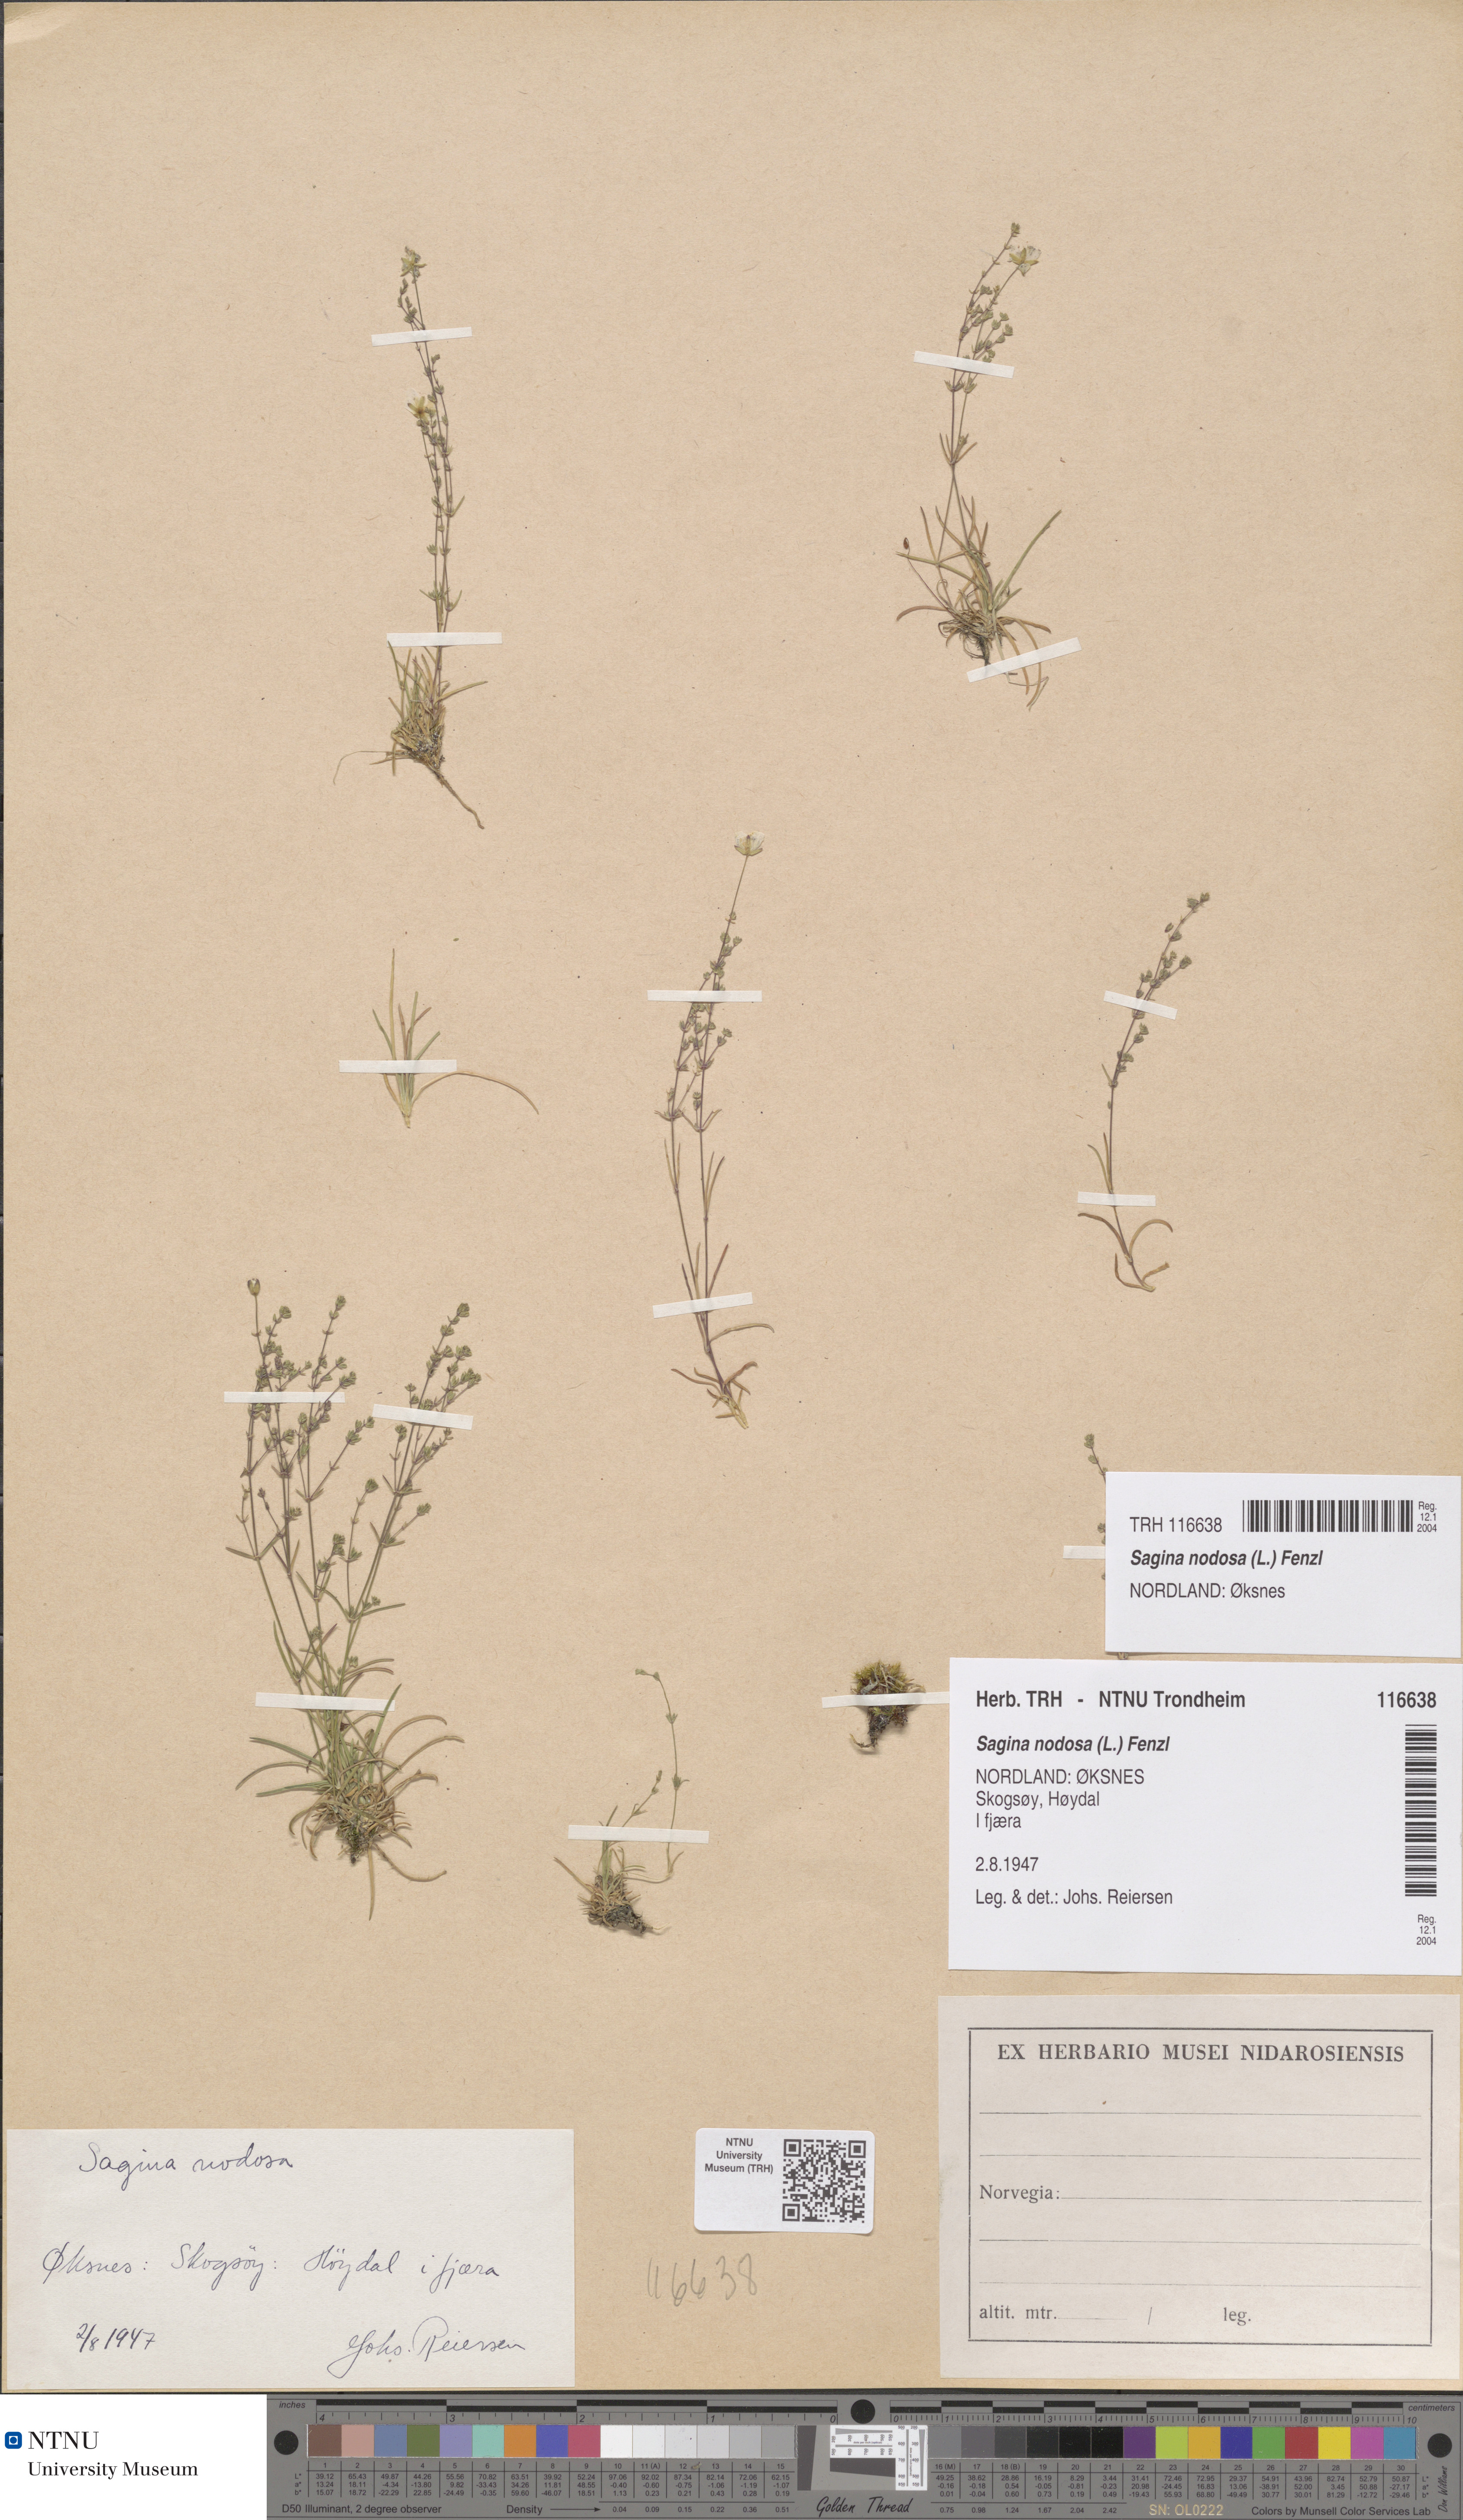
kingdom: Plantae
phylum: Tracheophyta
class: Magnoliopsida
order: Caryophyllales
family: Caryophyllaceae
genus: Sagina
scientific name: Sagina nodosa
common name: Knotted pearlwort
